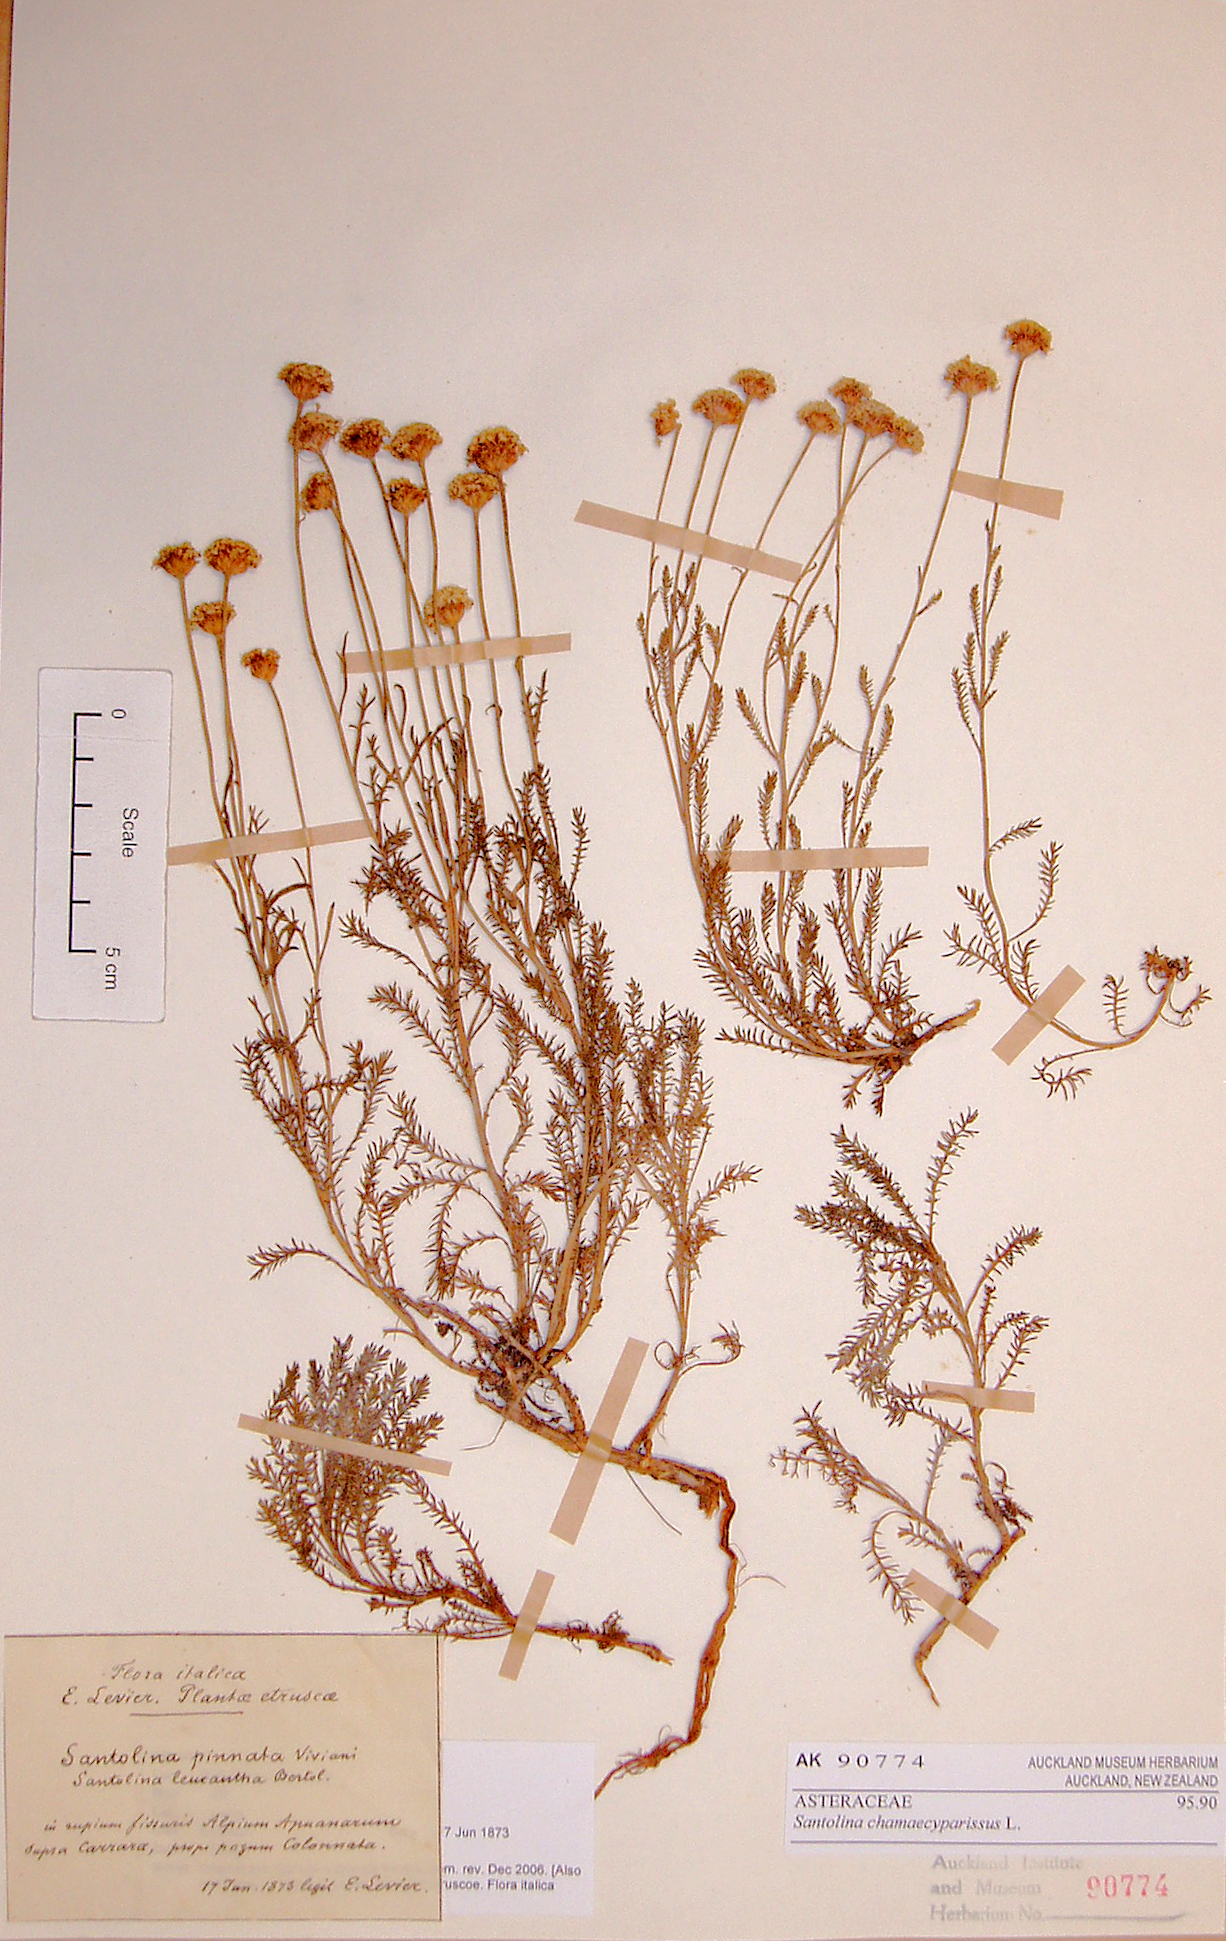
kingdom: Plantae
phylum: Tracheophyta
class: Magnoliopsida
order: Asterales
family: Asteraceae
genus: Santolina
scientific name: Santolina chamaecyparissus
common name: Lavender-cotton
